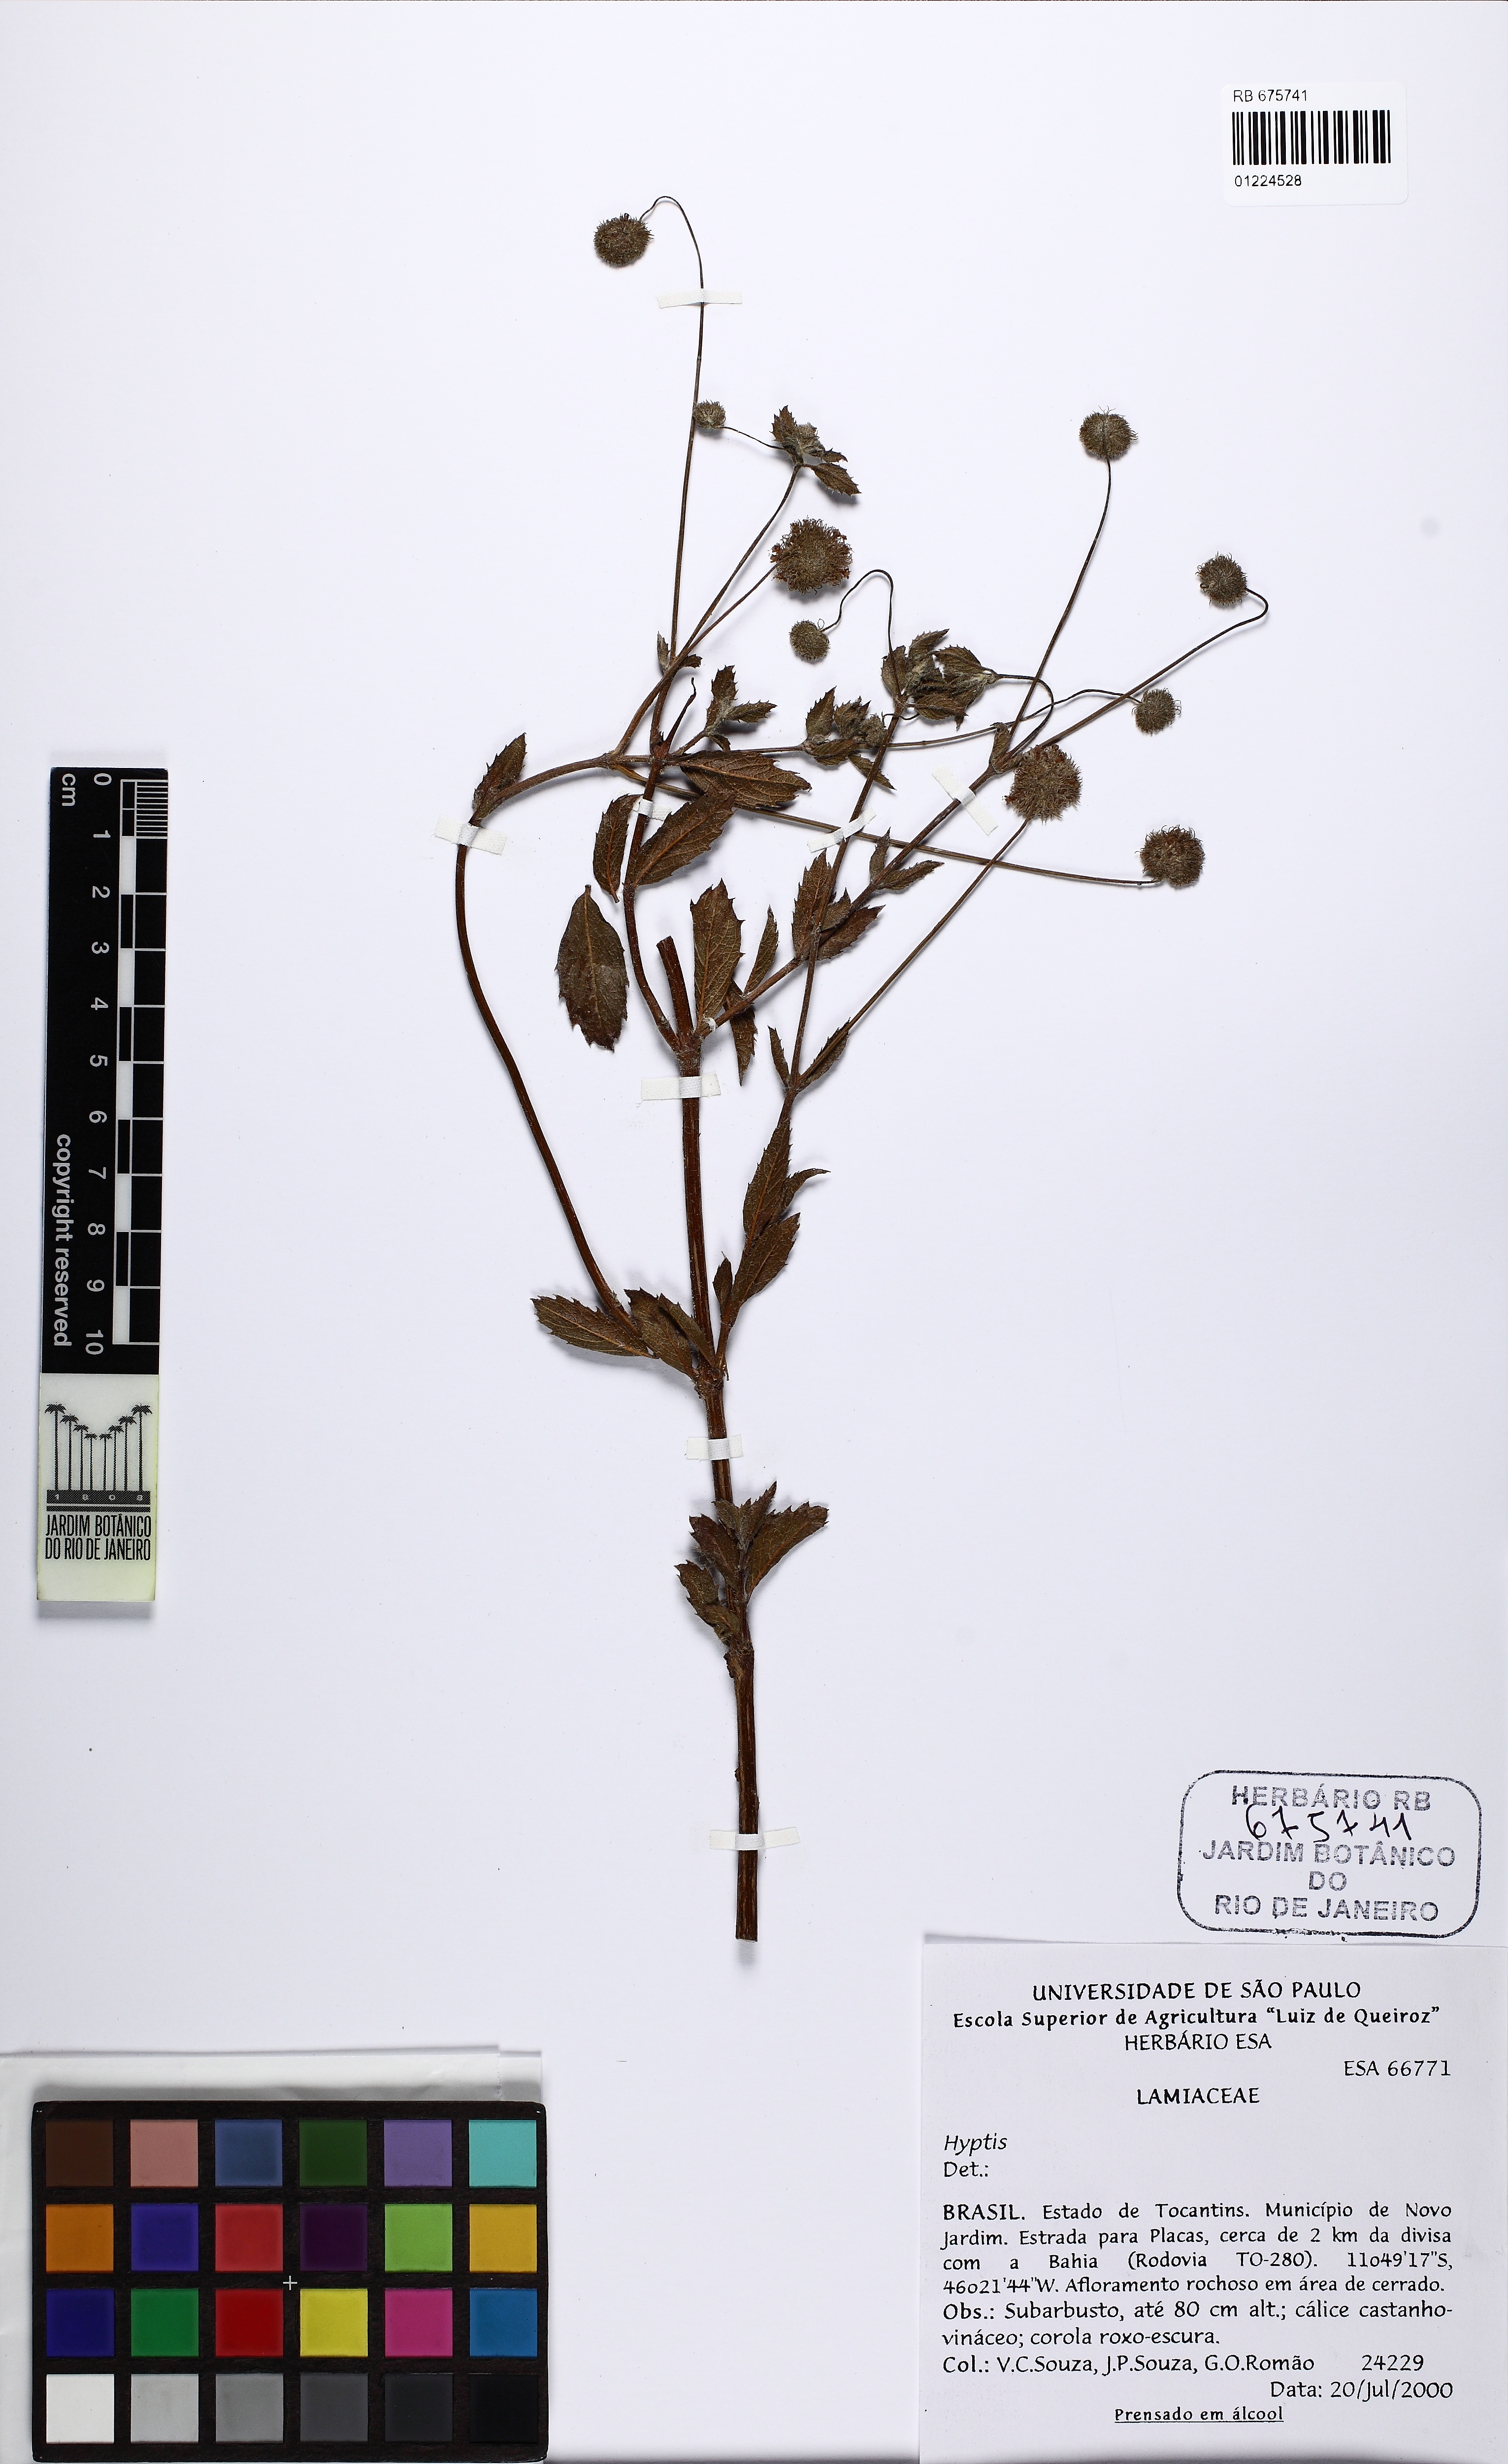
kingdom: Plantae
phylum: Tracheophyta
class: Magnoliopsida
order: Lamiales
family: Lamiaceae
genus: Hyptis
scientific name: Hyptis
